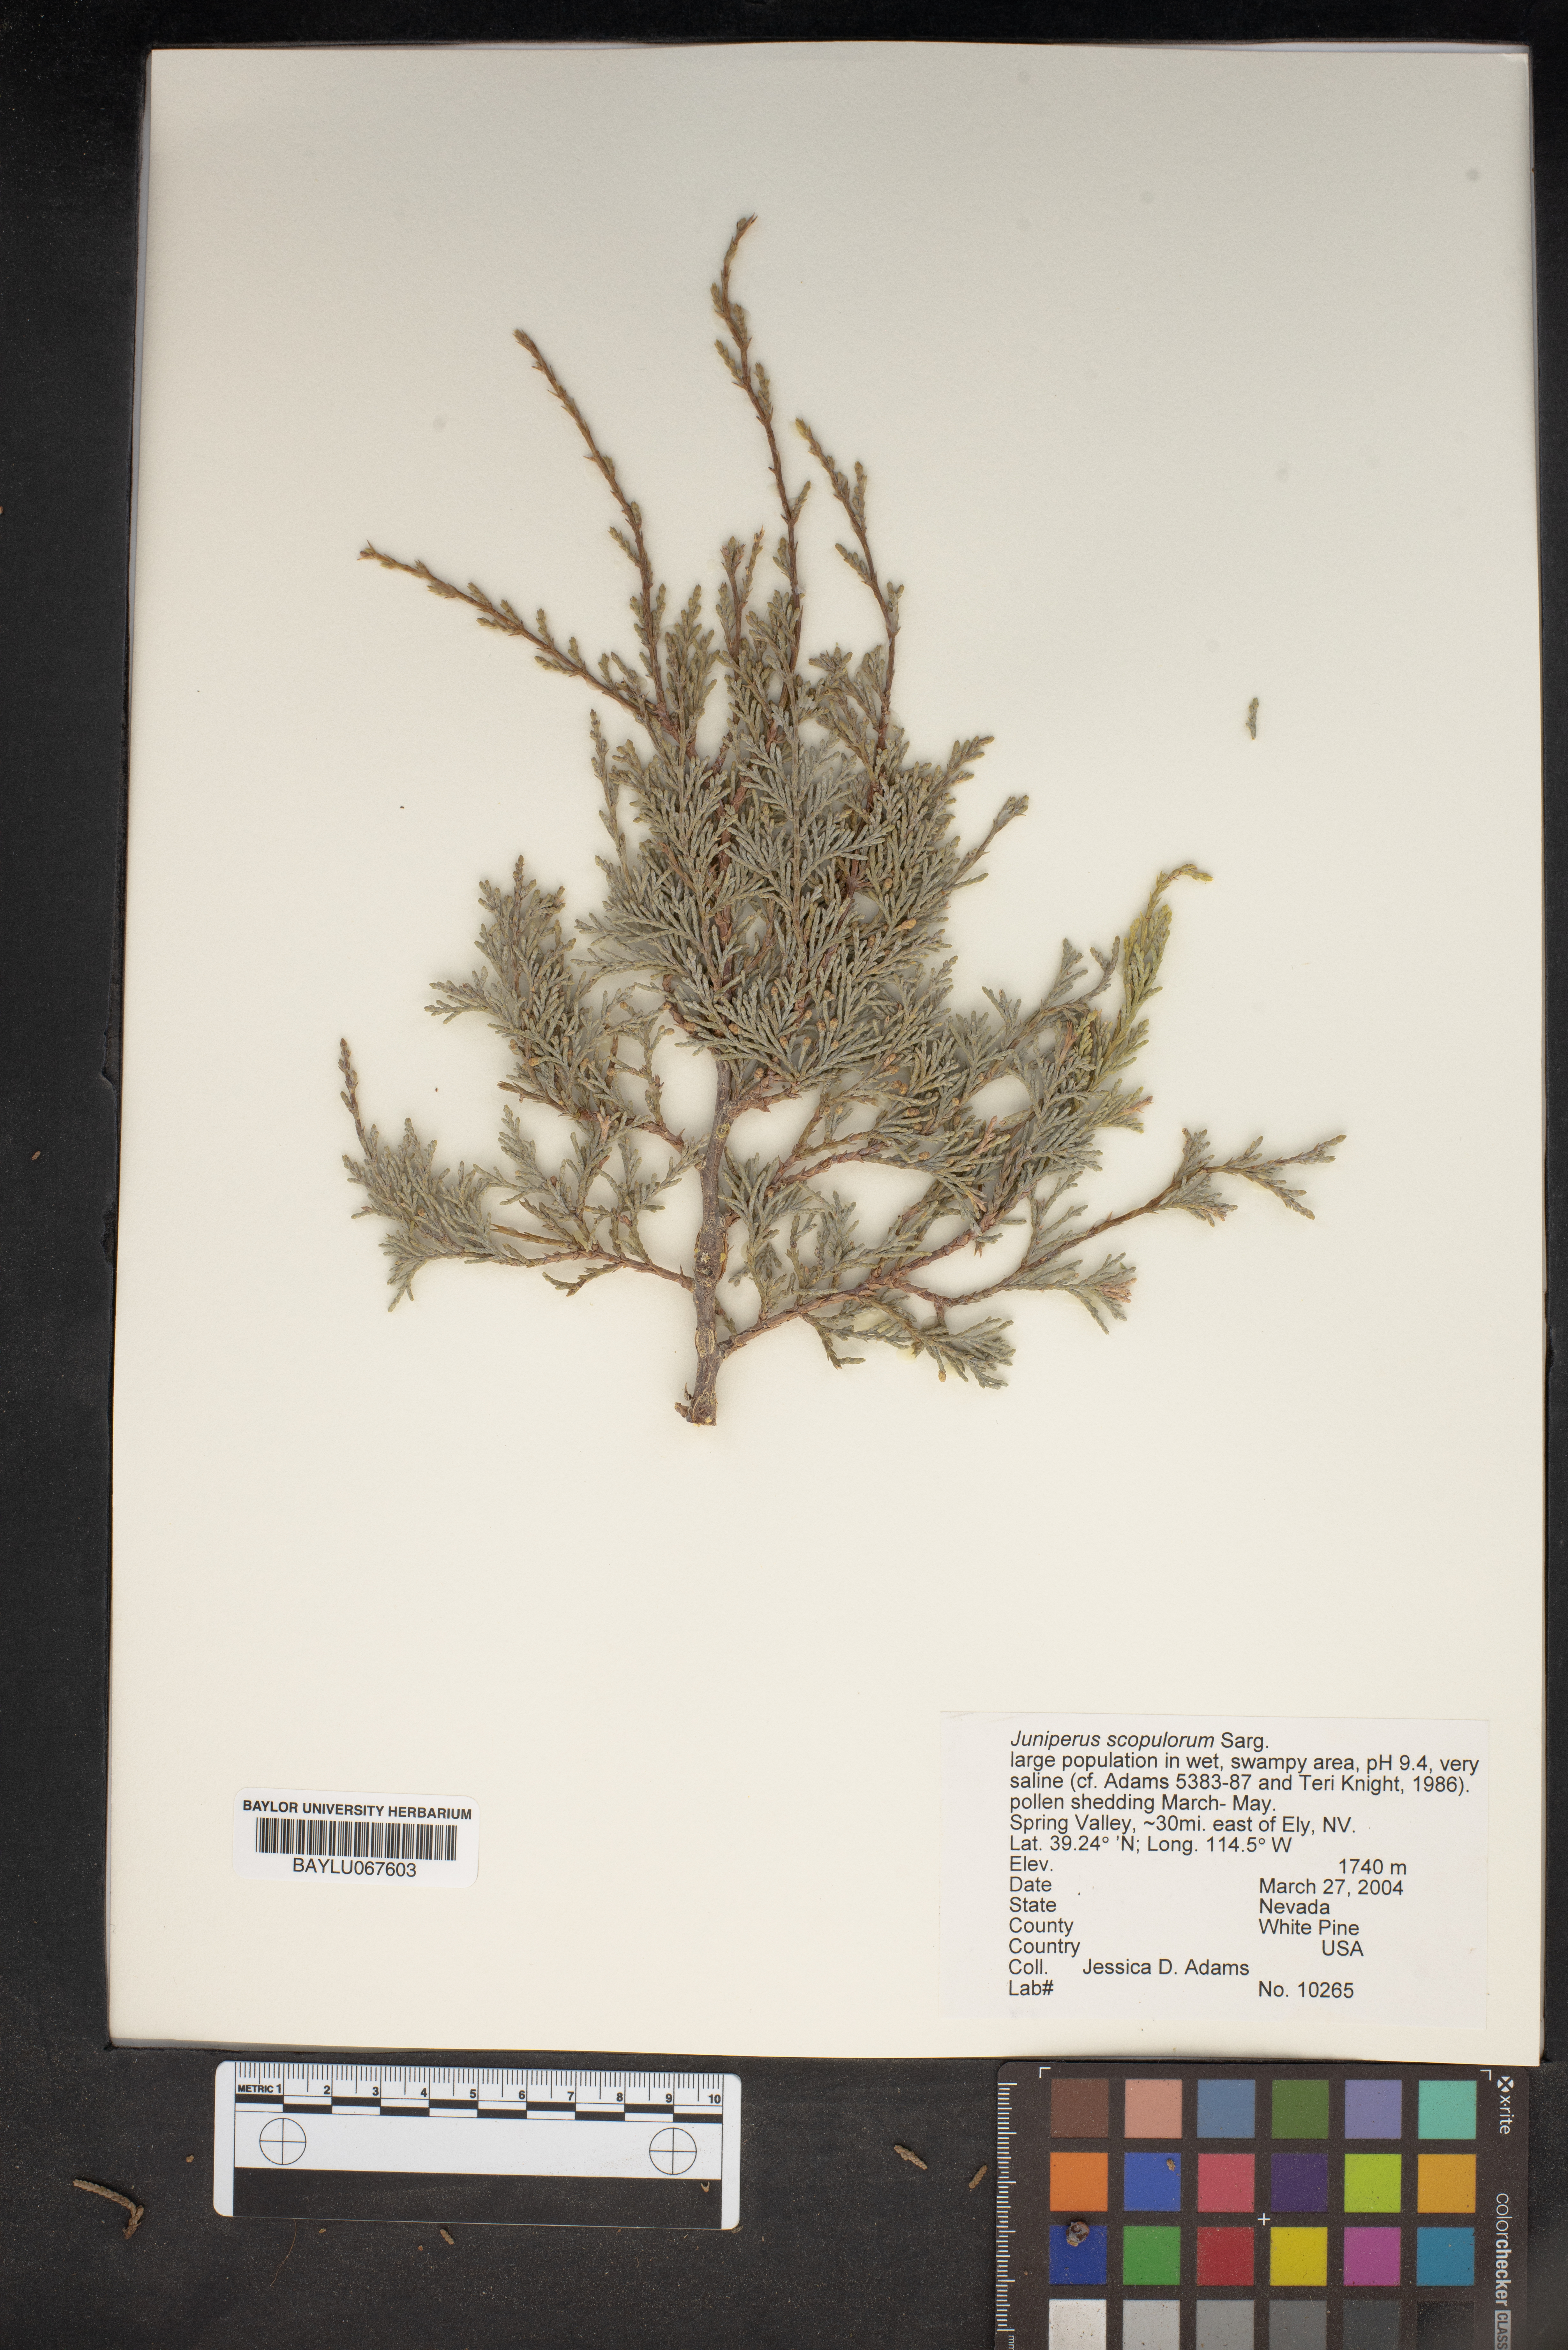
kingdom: Plantae
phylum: Tracheophyta
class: Pinopsida
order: Pinales
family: Cupressaceae
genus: Juniperus
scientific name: Juniperus scopulorum
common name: Rocky mountain juniper
